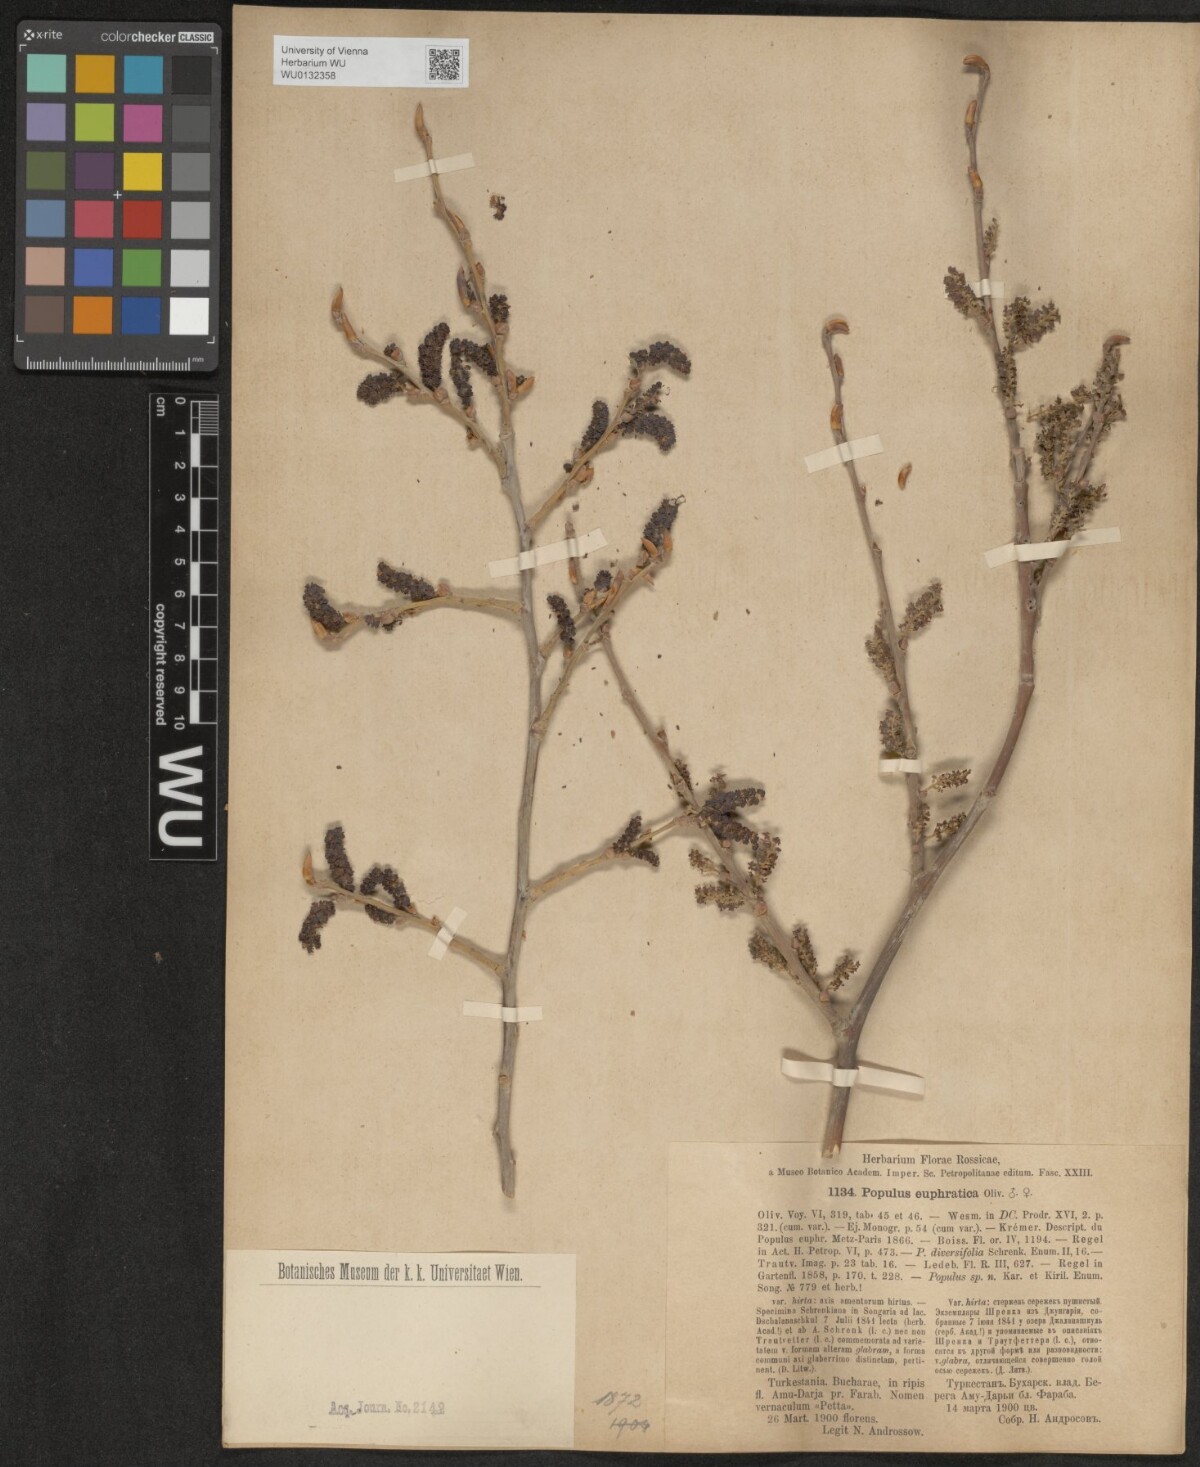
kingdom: Plantae
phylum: Tracheophyta
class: Magnoliopsida
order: Malpighiales
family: Salicaceae
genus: Populus
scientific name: Populus euphratica
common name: Euphrates poplar
